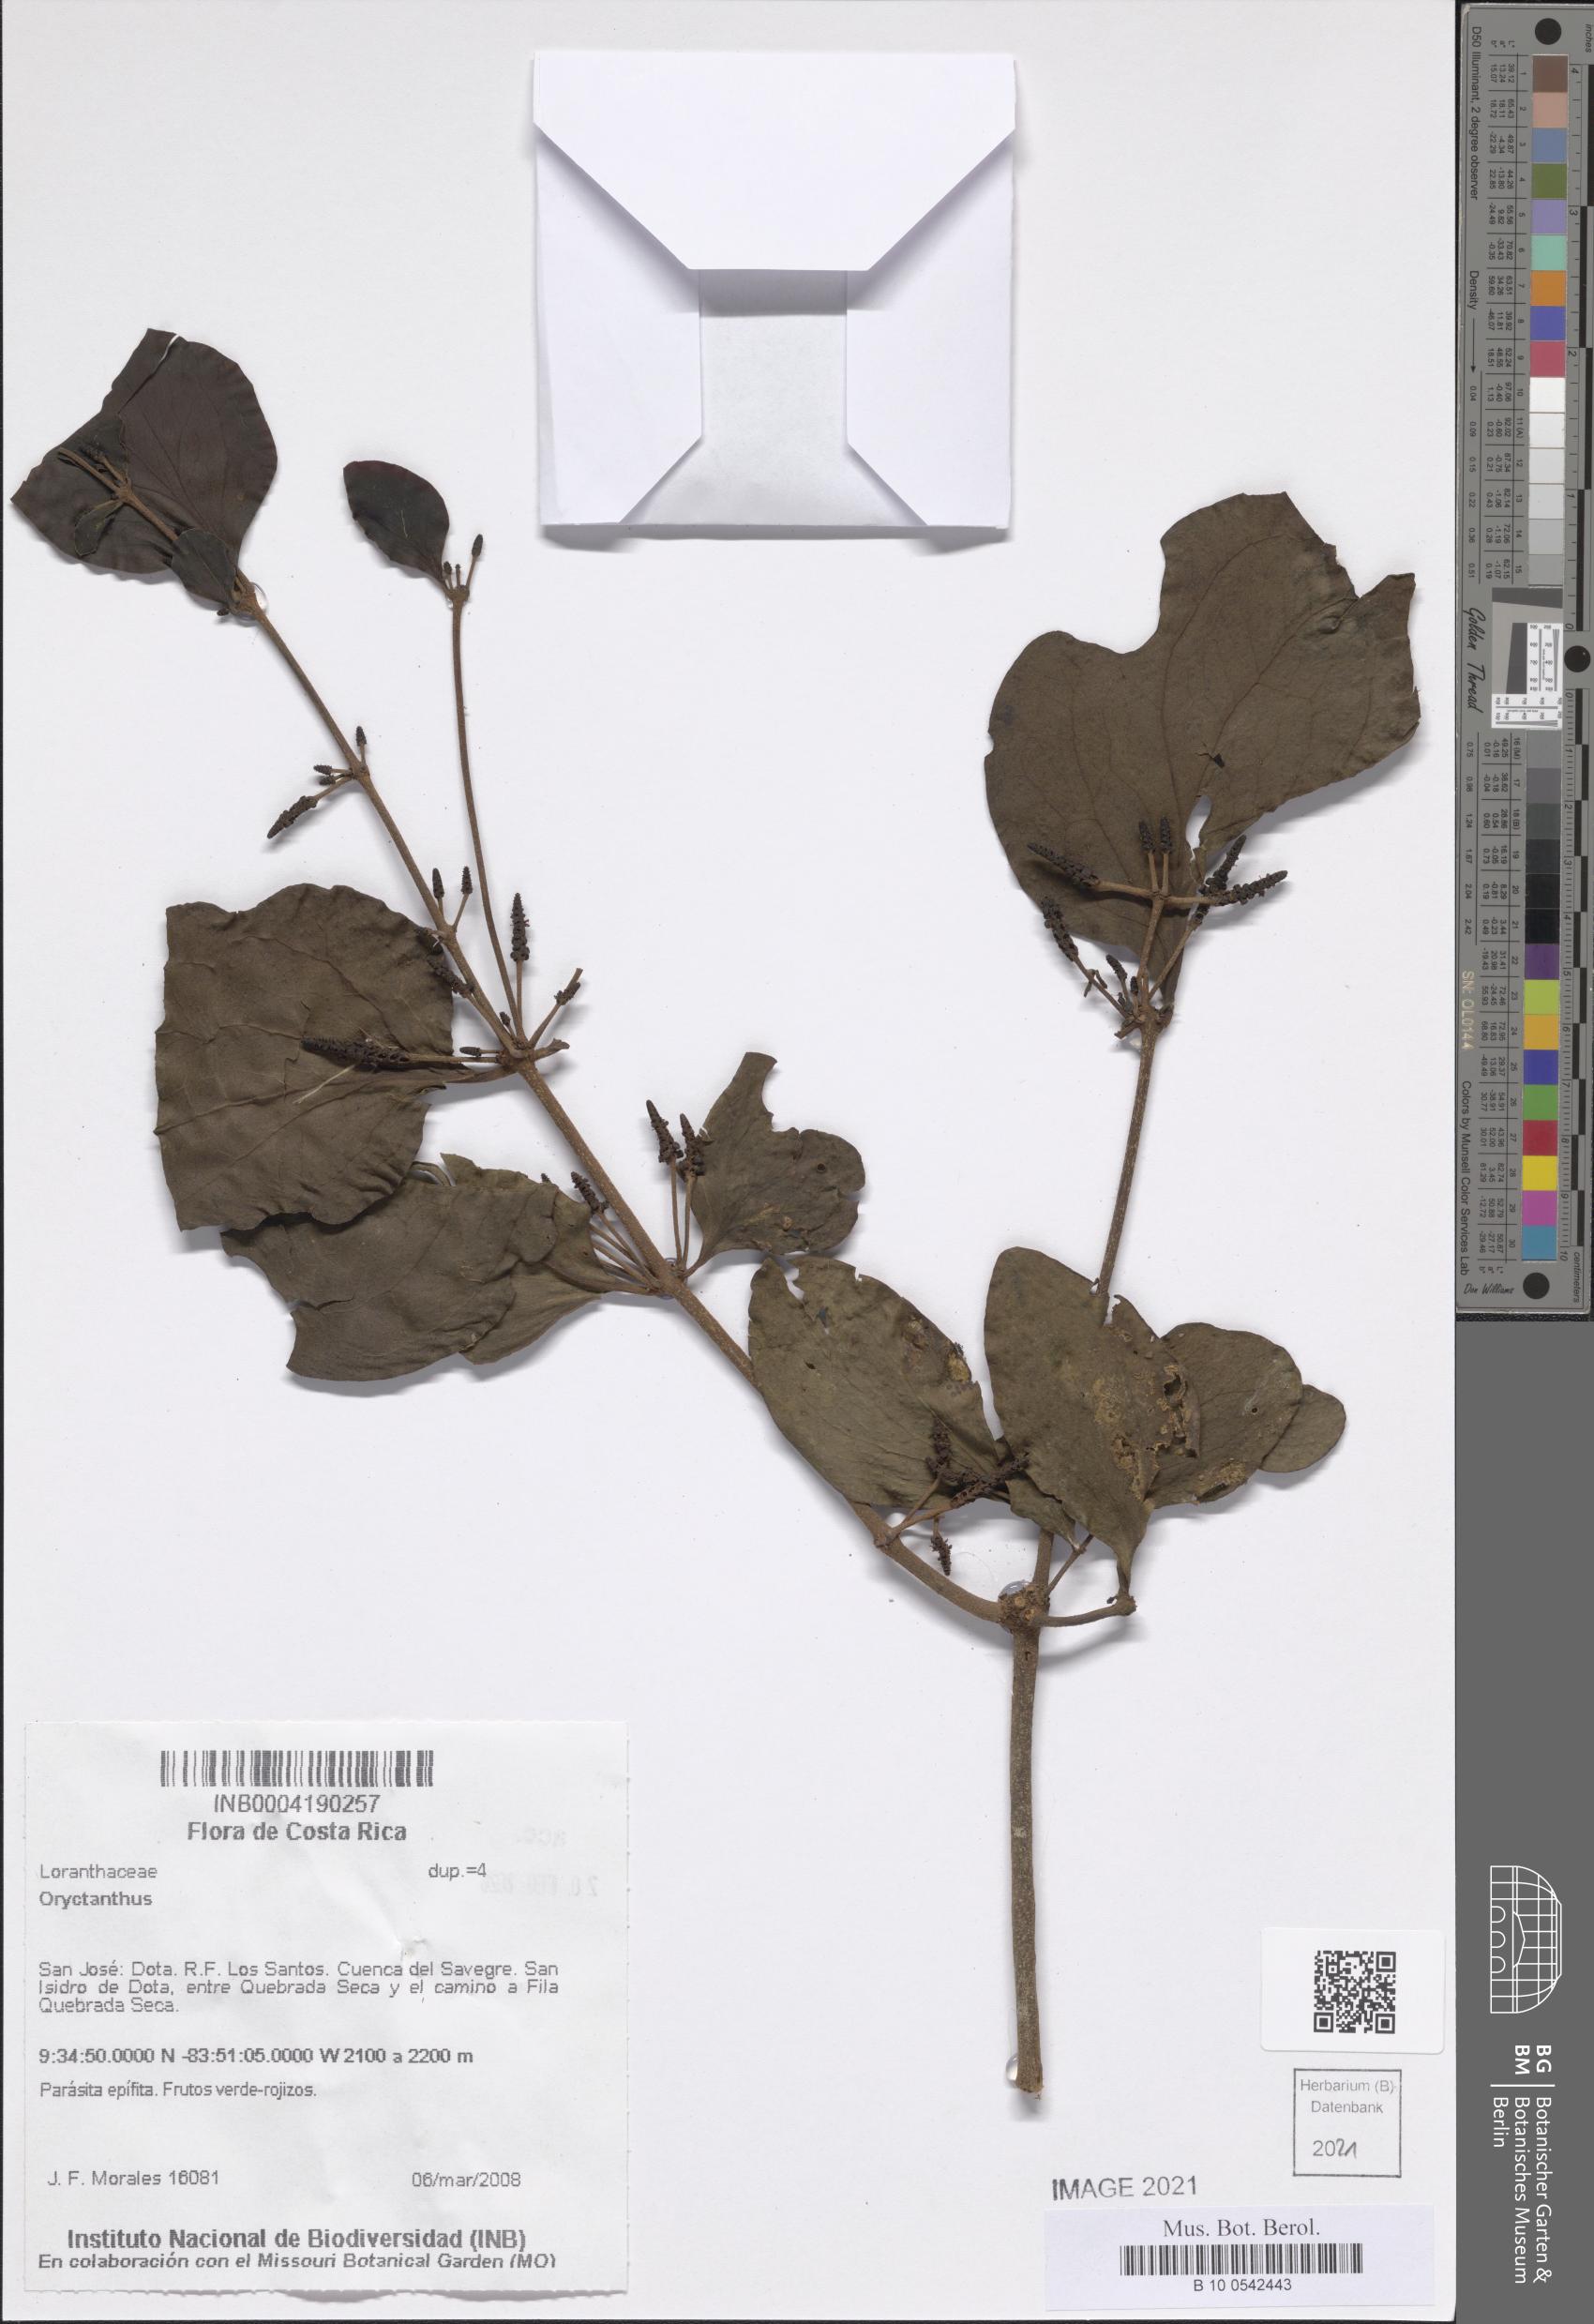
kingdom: Plantae
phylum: Tracheophyta
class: Magnoliopsida
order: Santalales
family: Loranthaceae
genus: Oryctanthus
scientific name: Oryctanthus
